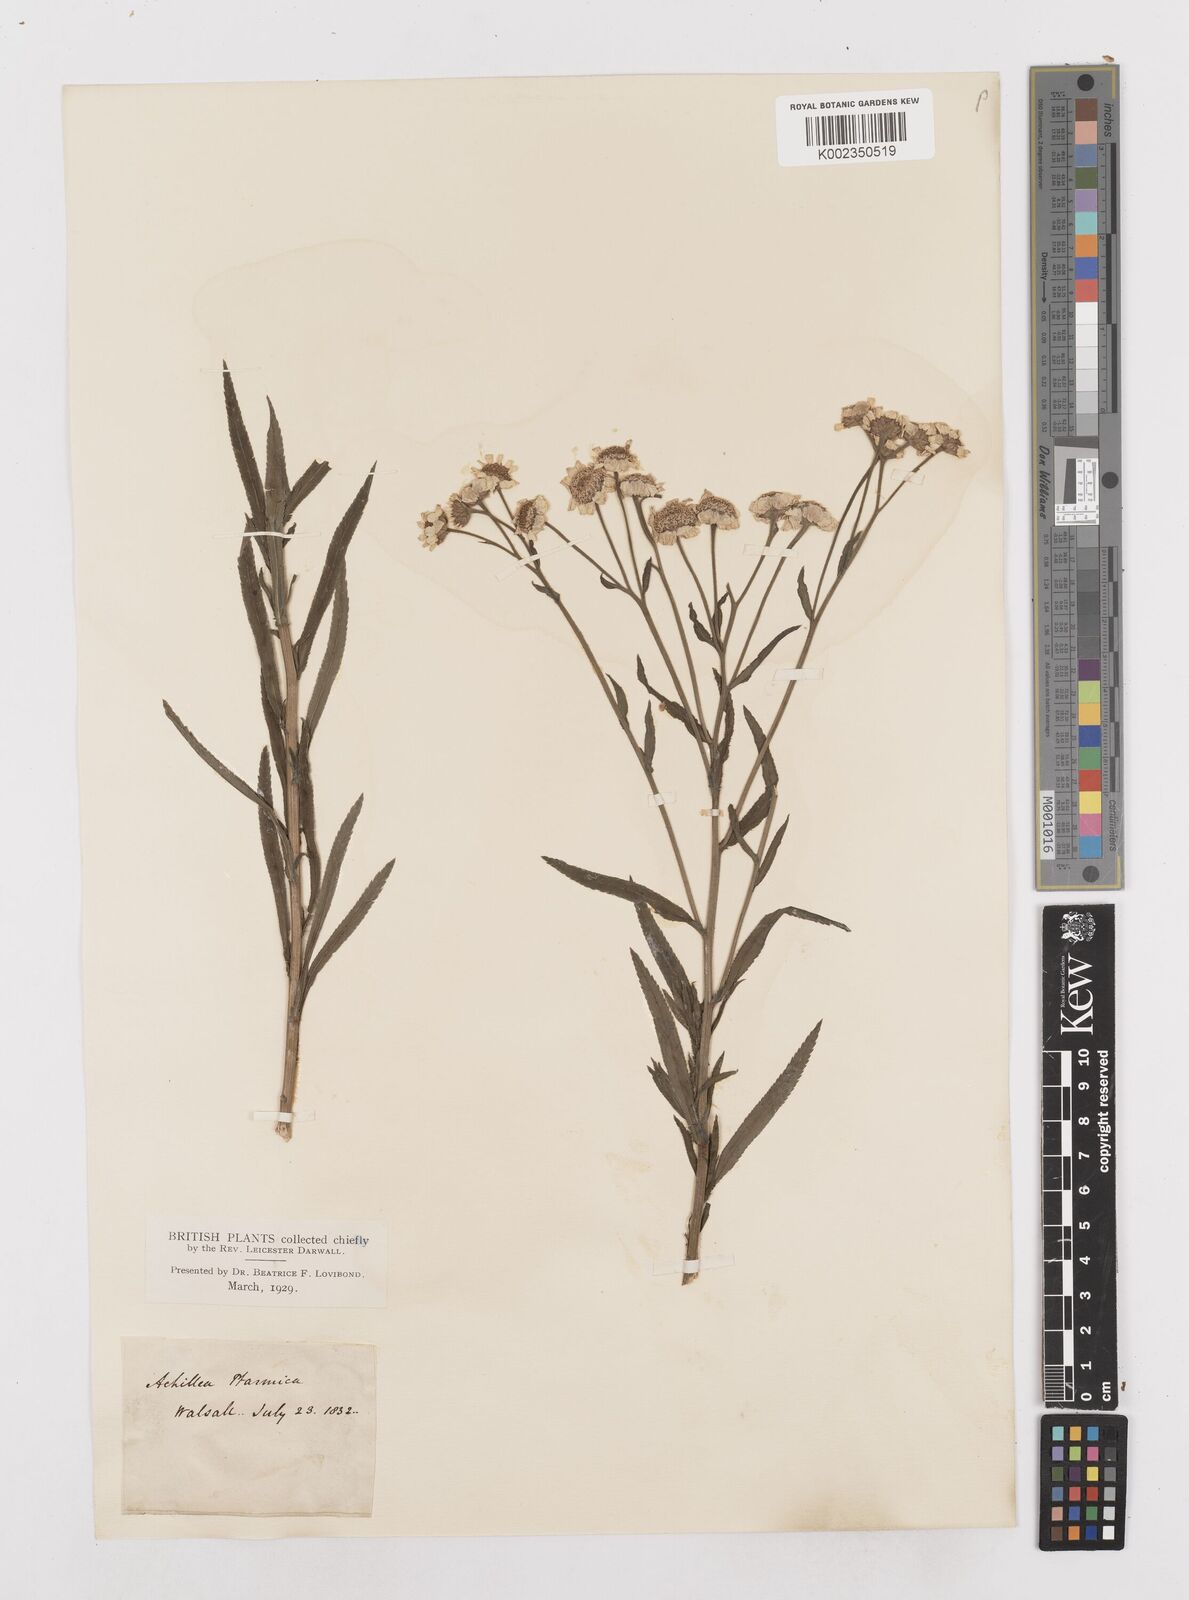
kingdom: Plantae
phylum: Tracheophyta
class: Magnoliopsida
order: Asterales
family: Asteraceae
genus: Achillea
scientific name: Achillea ptarmica
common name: Sneezeweed
